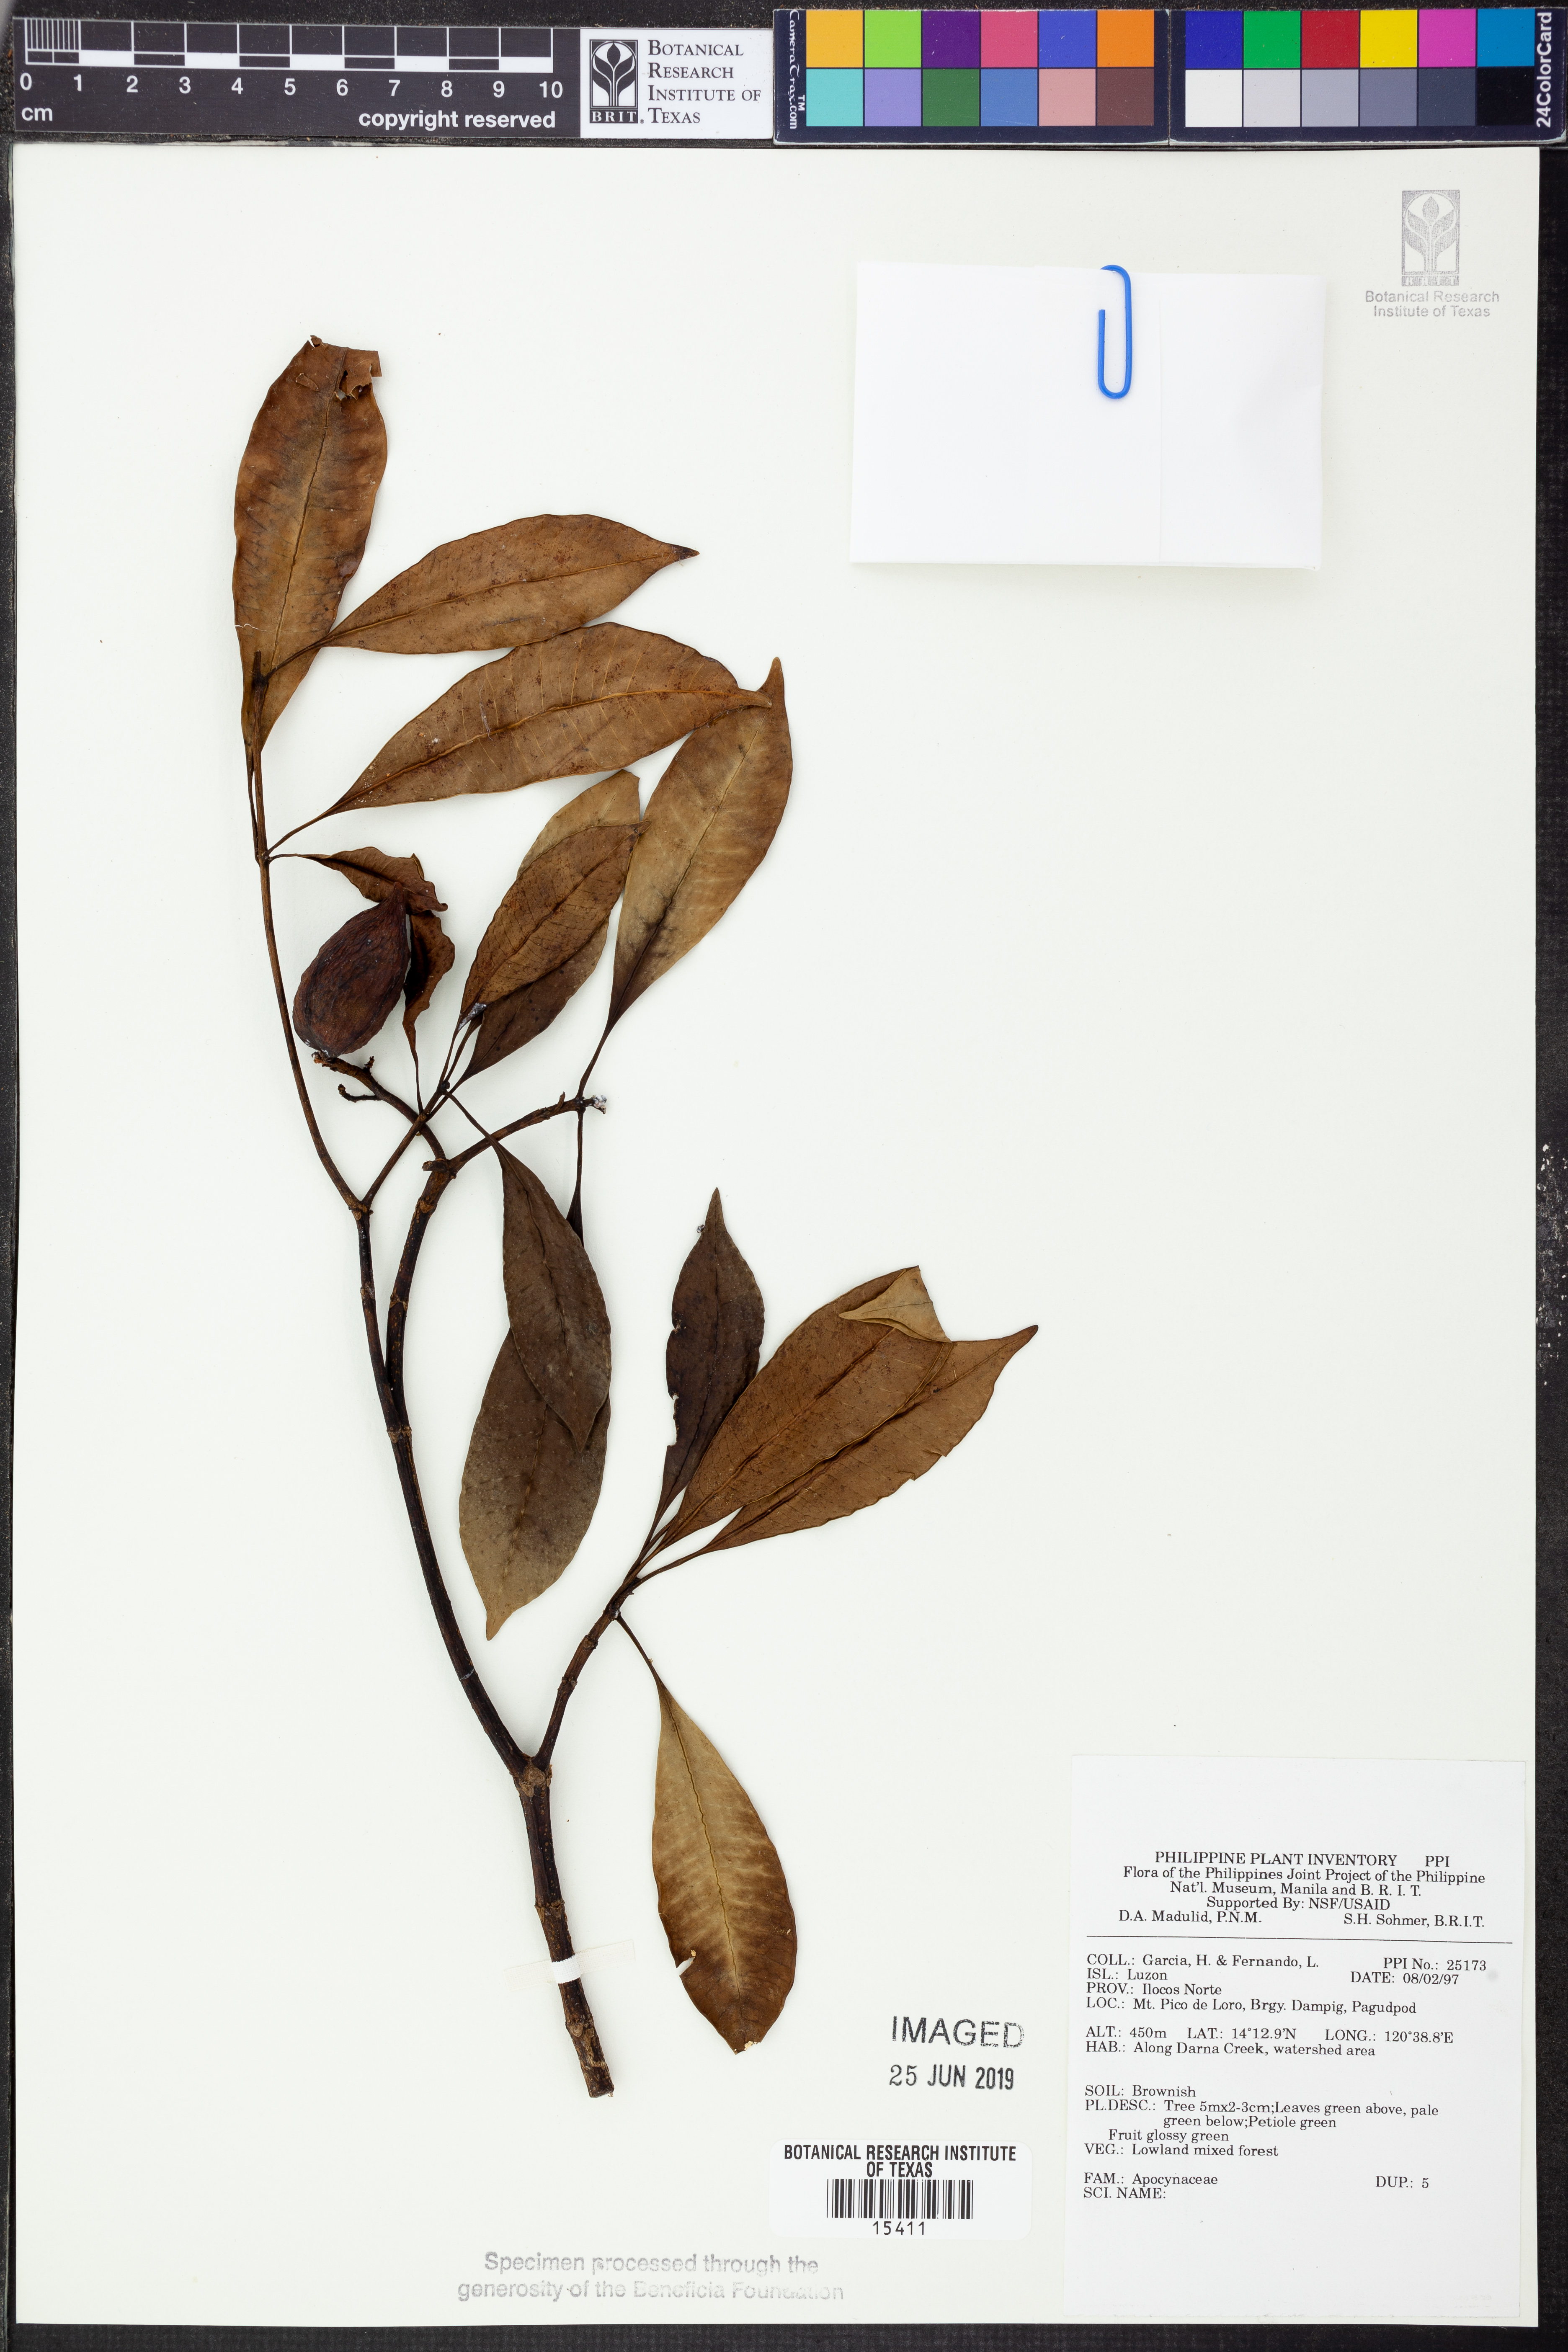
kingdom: Plantae
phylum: Tracheophyta
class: Magnoliopsida
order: Gentianales
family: Apocynaceae
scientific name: Apocynaceae
